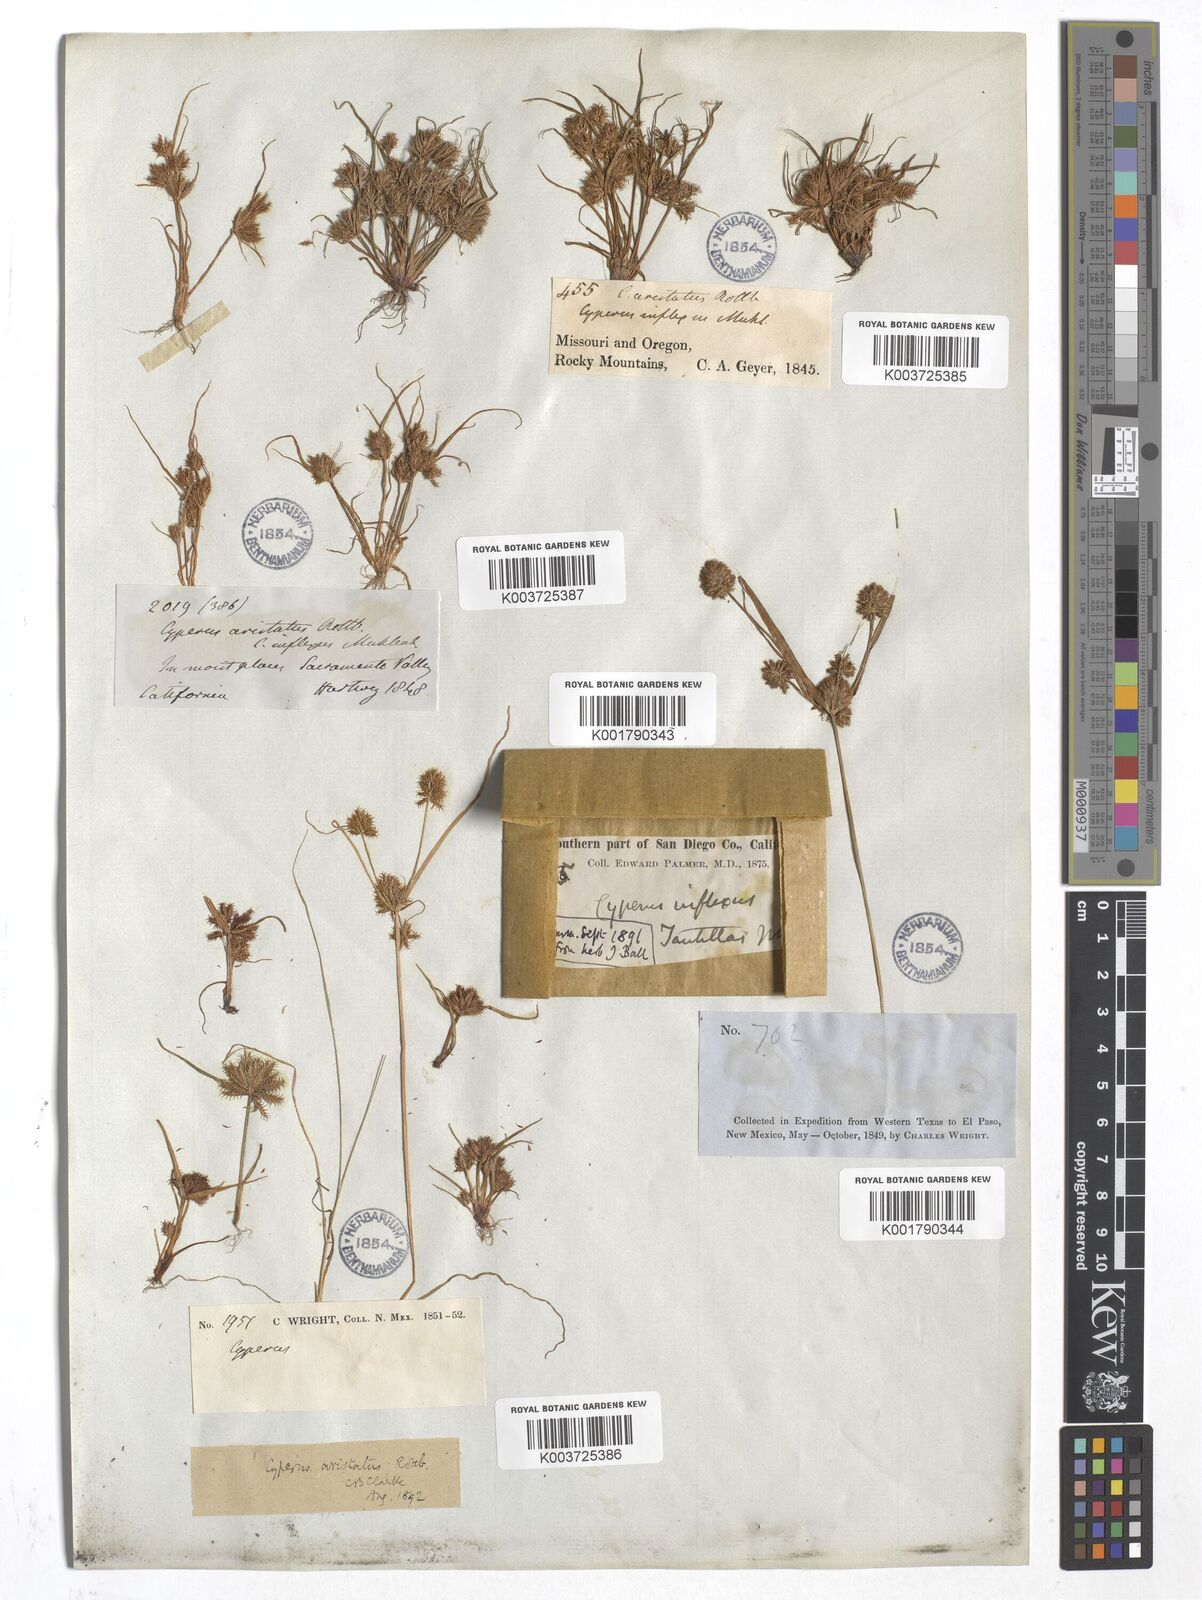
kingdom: Plantae
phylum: Tracheophyta
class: Liliopsida
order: Poales
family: Cyperaceae
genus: Cyperus
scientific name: Cyperus squarrosus
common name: Awned cyperus
